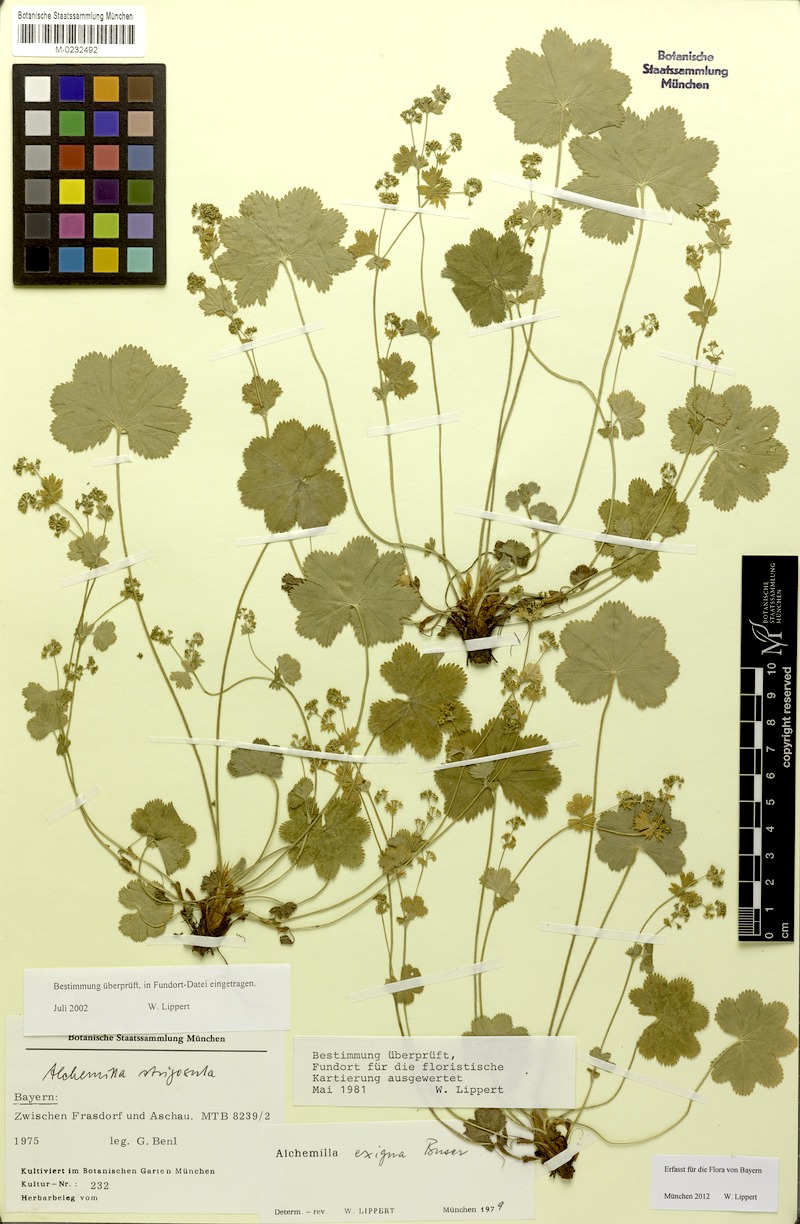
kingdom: Plantae
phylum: Tracheophyta
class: Magnoliopsida
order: Rosales
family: Rosaceae
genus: Alchemilla
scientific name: Alchemilla exigua
